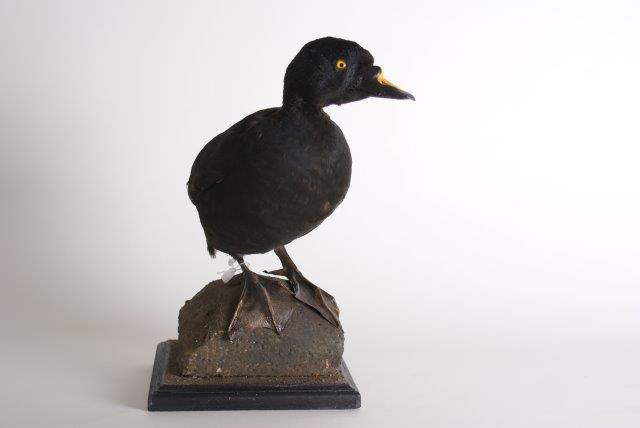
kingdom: Animalia
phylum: Chordata
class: Aves
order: Anseriformes
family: Anatidae
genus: Melanitta
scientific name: Melanitta nigra
